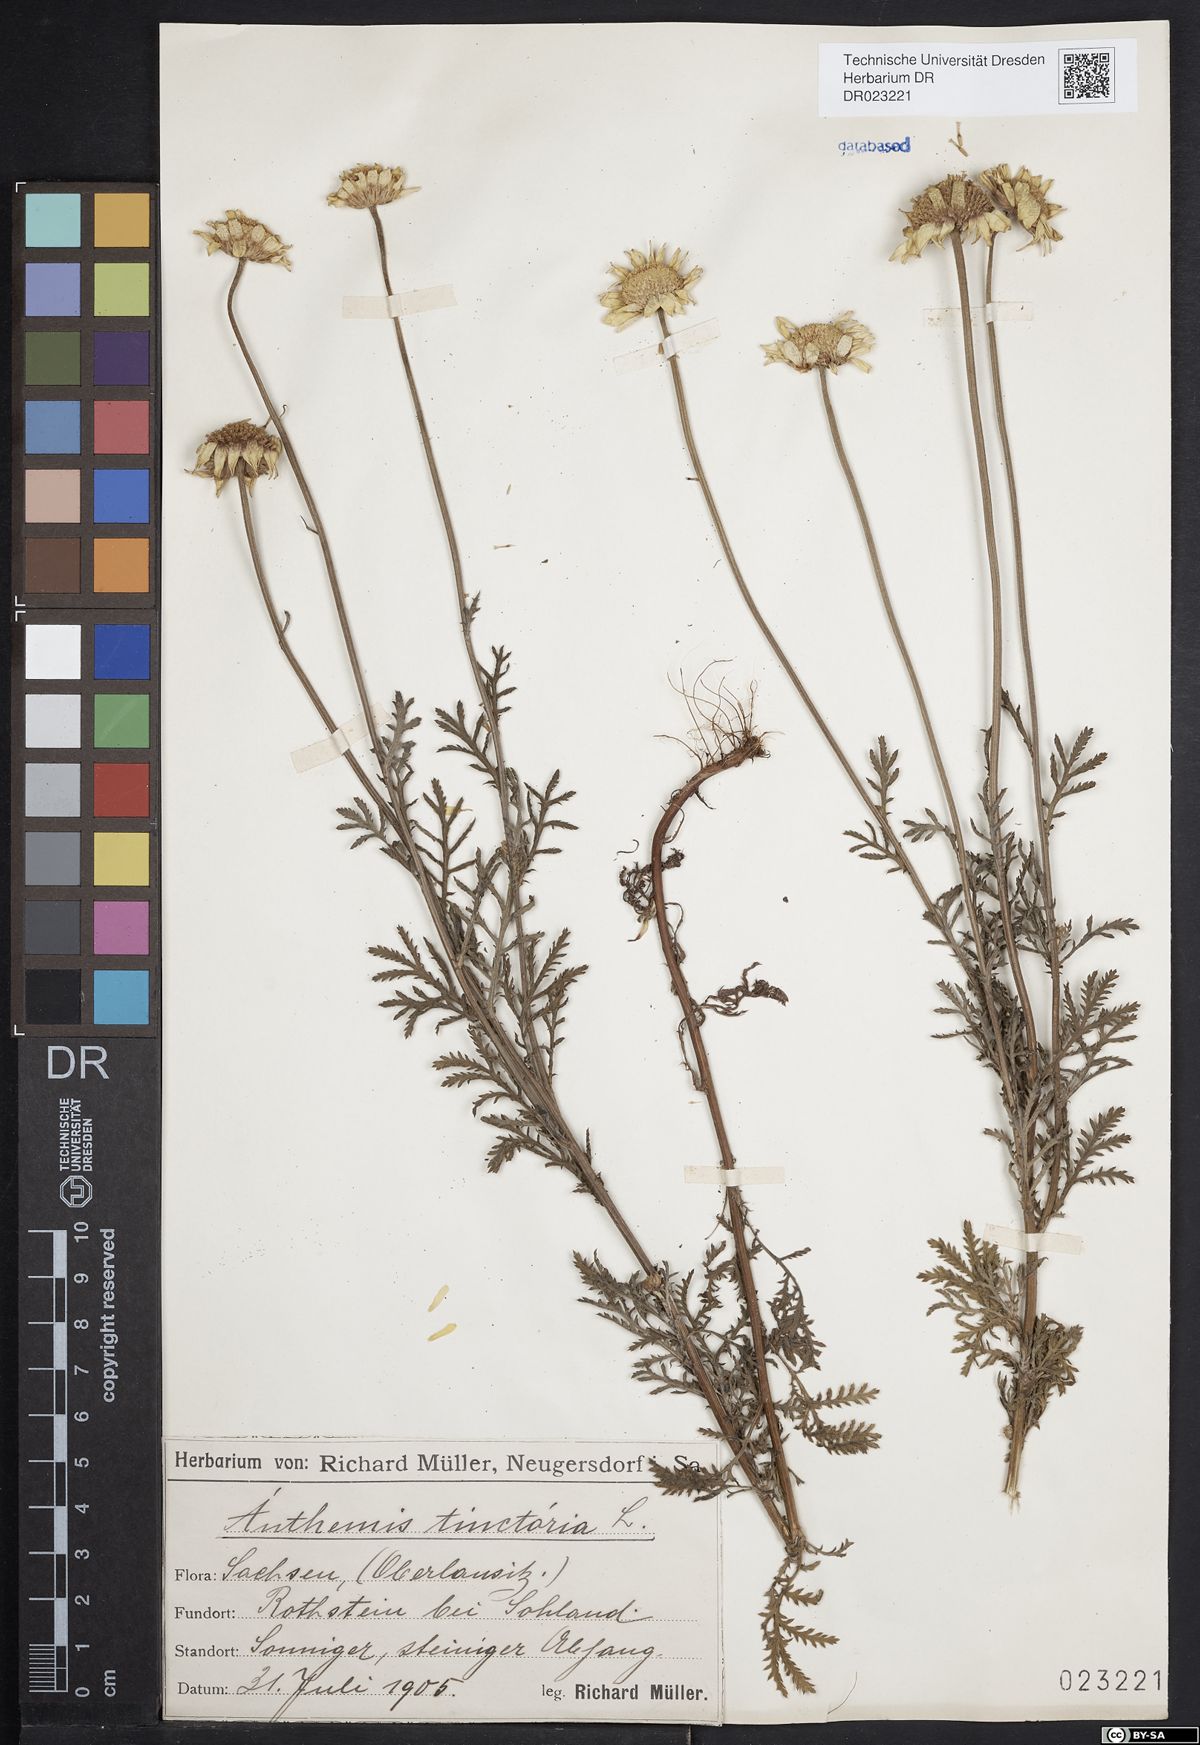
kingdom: Plantae
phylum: Tracheophyta
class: Magnoliopsida
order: Asterales
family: Asteraceae
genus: Cota
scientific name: Cota tinctoria
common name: Golden chamomile
